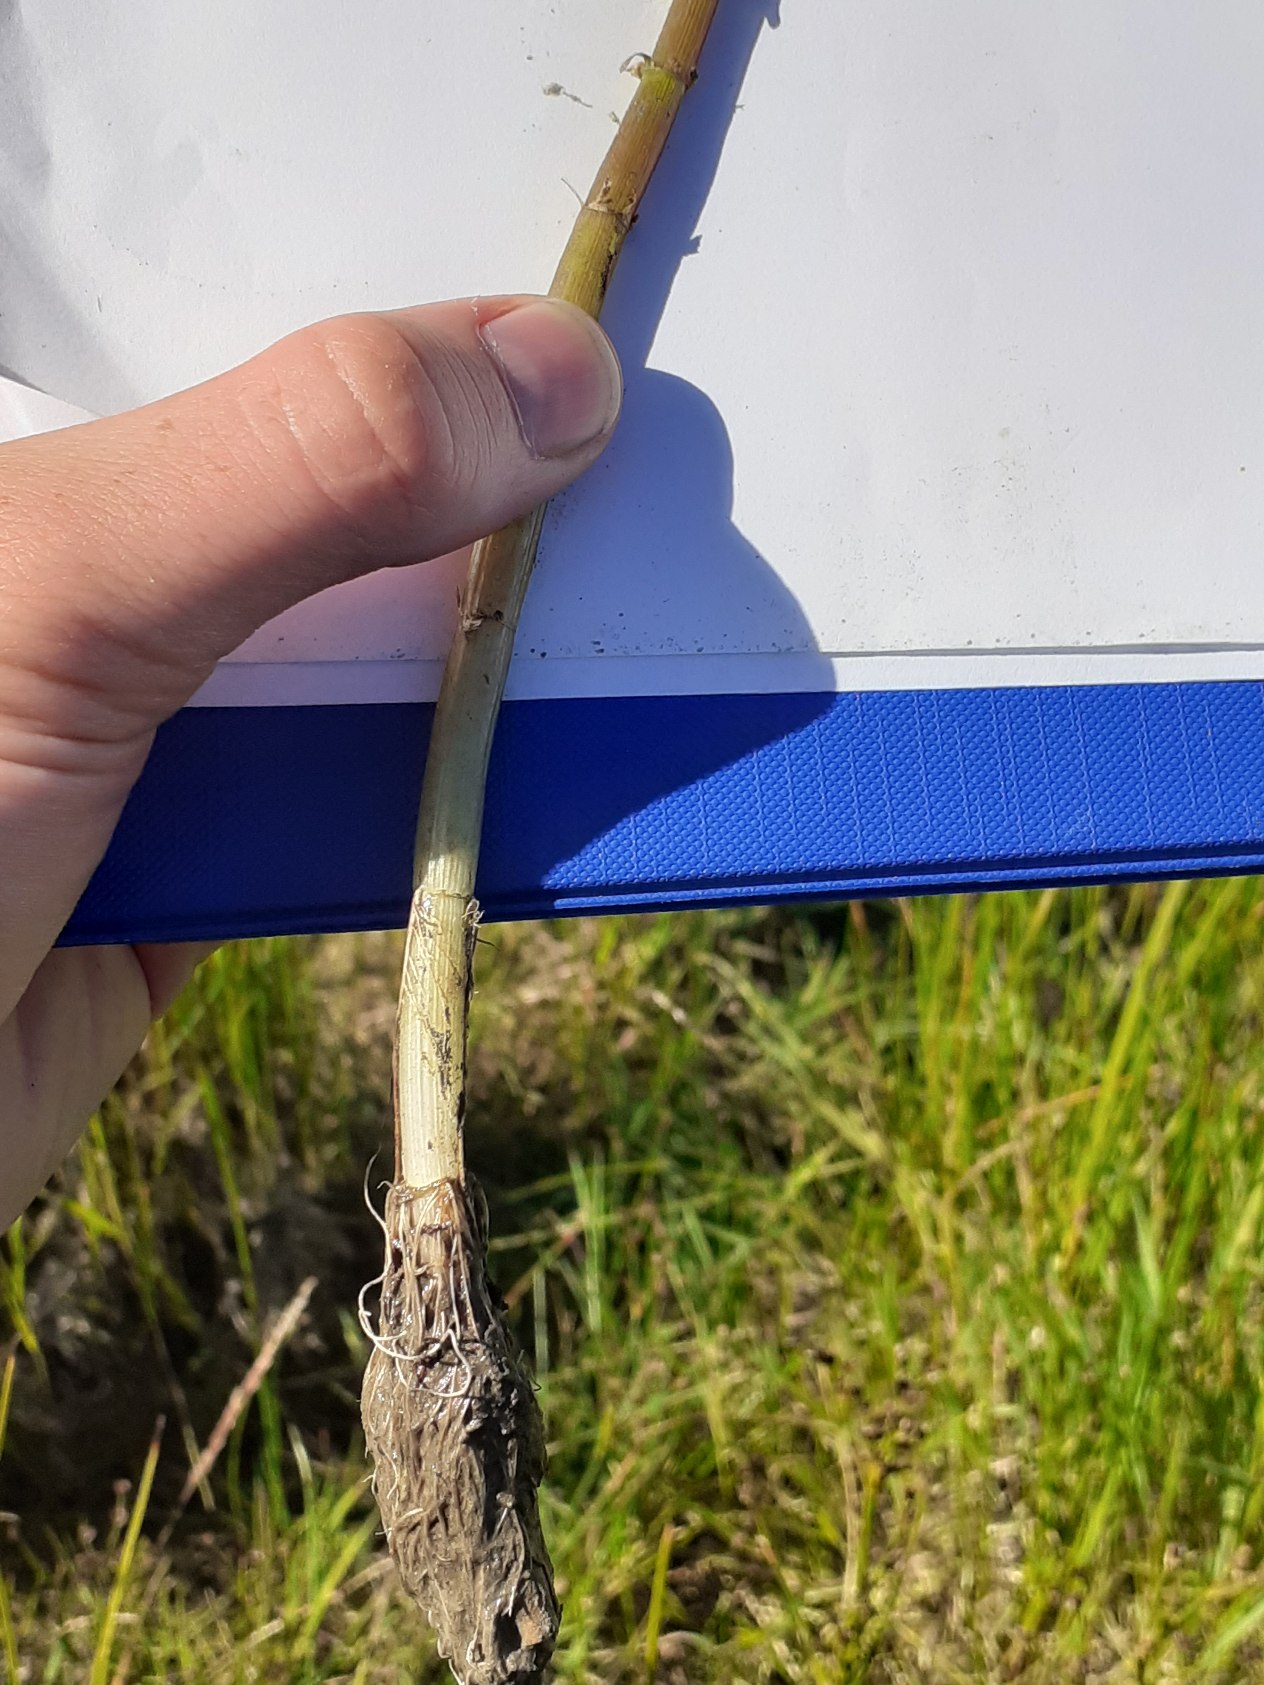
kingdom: Plantae
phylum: Tracheophyta
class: Magnoliopsida
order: Lamiales
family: Plantaginaceae
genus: Hippuris
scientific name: Hippuris vulgaris
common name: Vandspir
